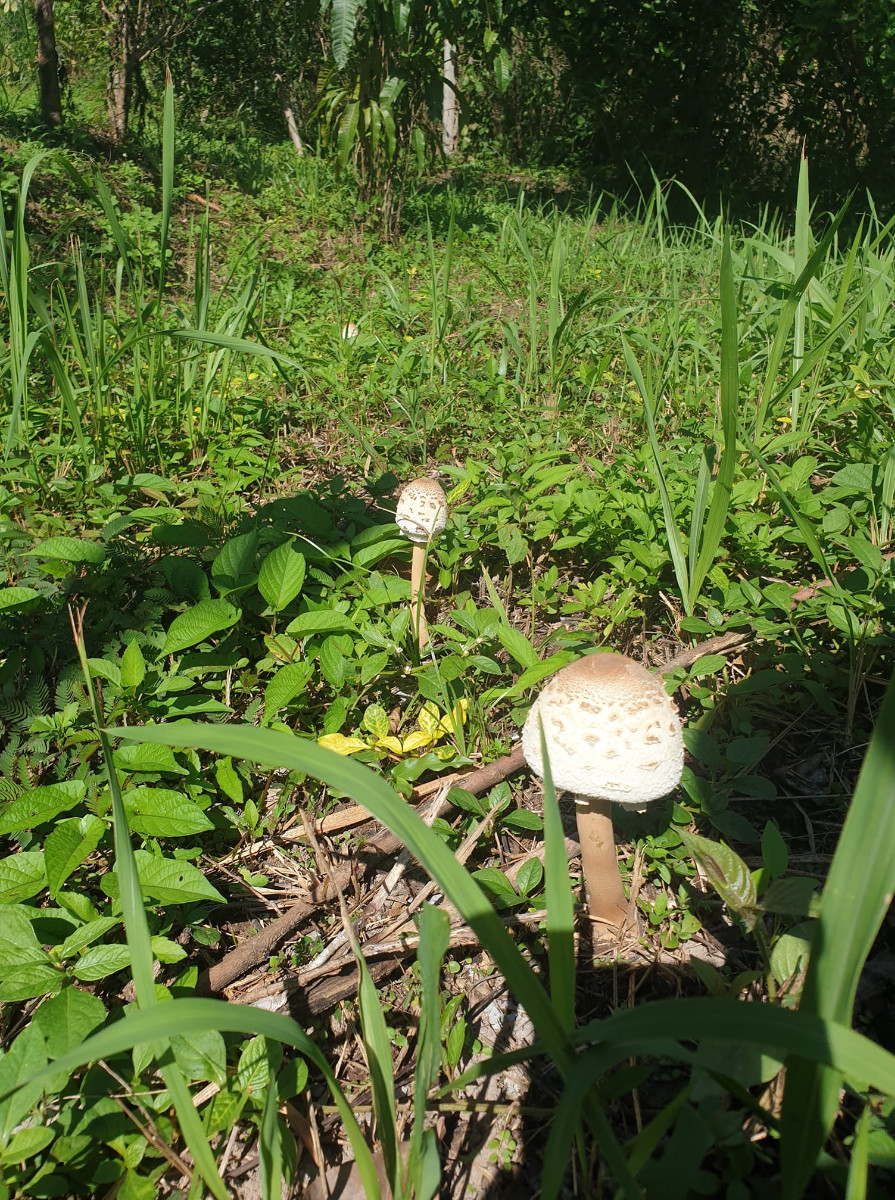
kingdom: Fungi
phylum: Basidiomycota
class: Agaricomycetes
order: Agaricales
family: Agaricaceae
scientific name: Agaricaceae
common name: champignonfamilien
